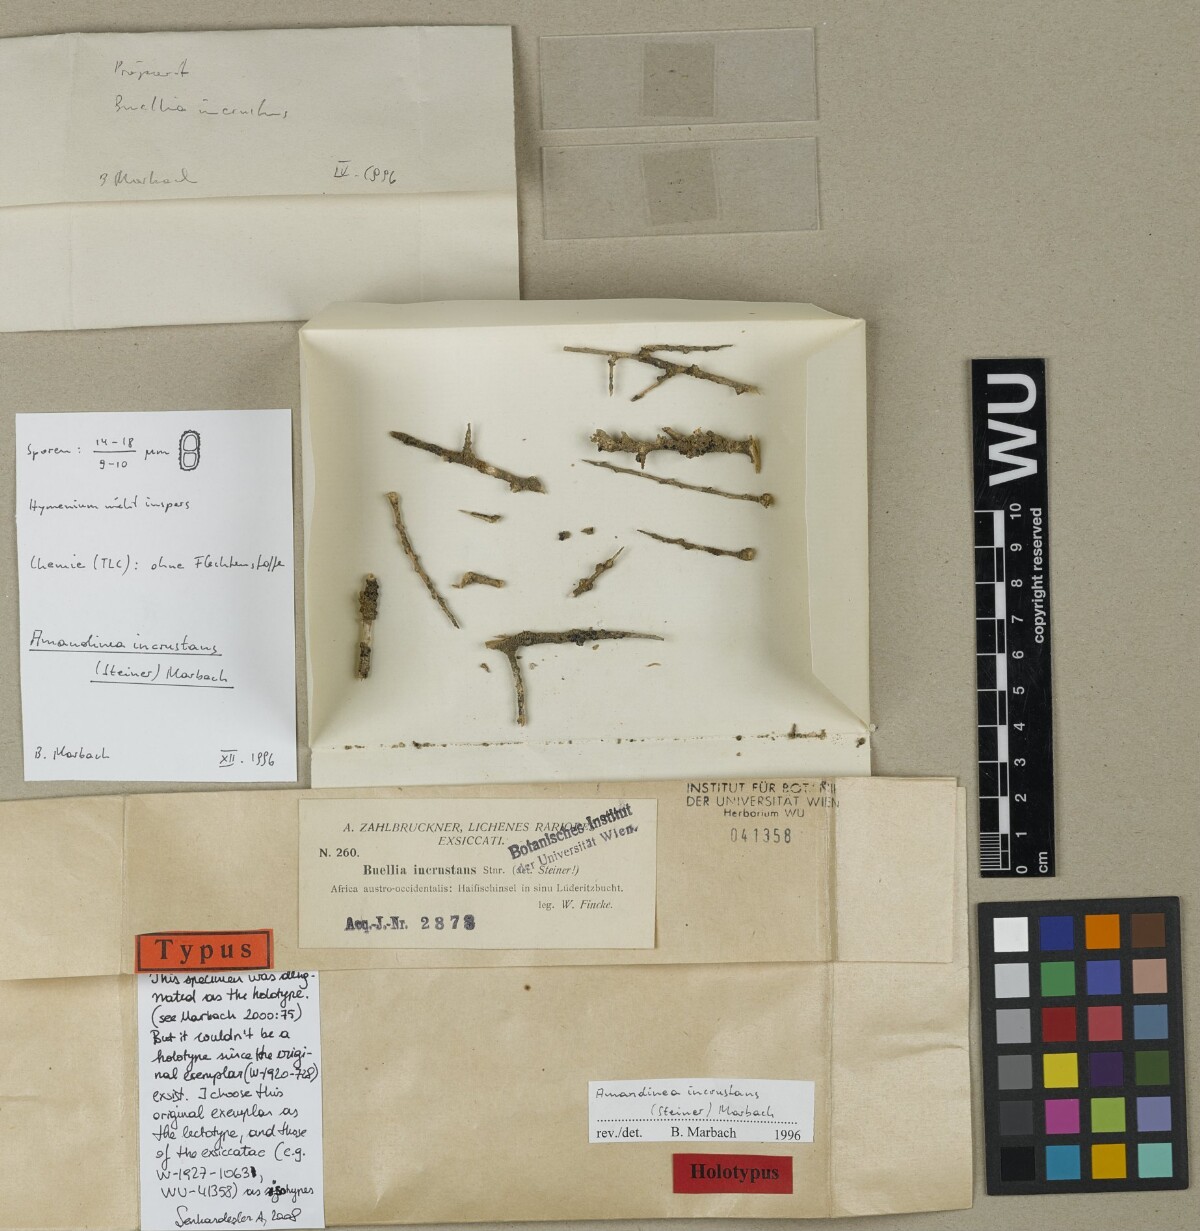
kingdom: Fungi
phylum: Ascomycota
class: Lecanoromycetes
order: Caliciales
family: Caliciaceae
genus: Amandinea
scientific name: Amandinea incrustans
